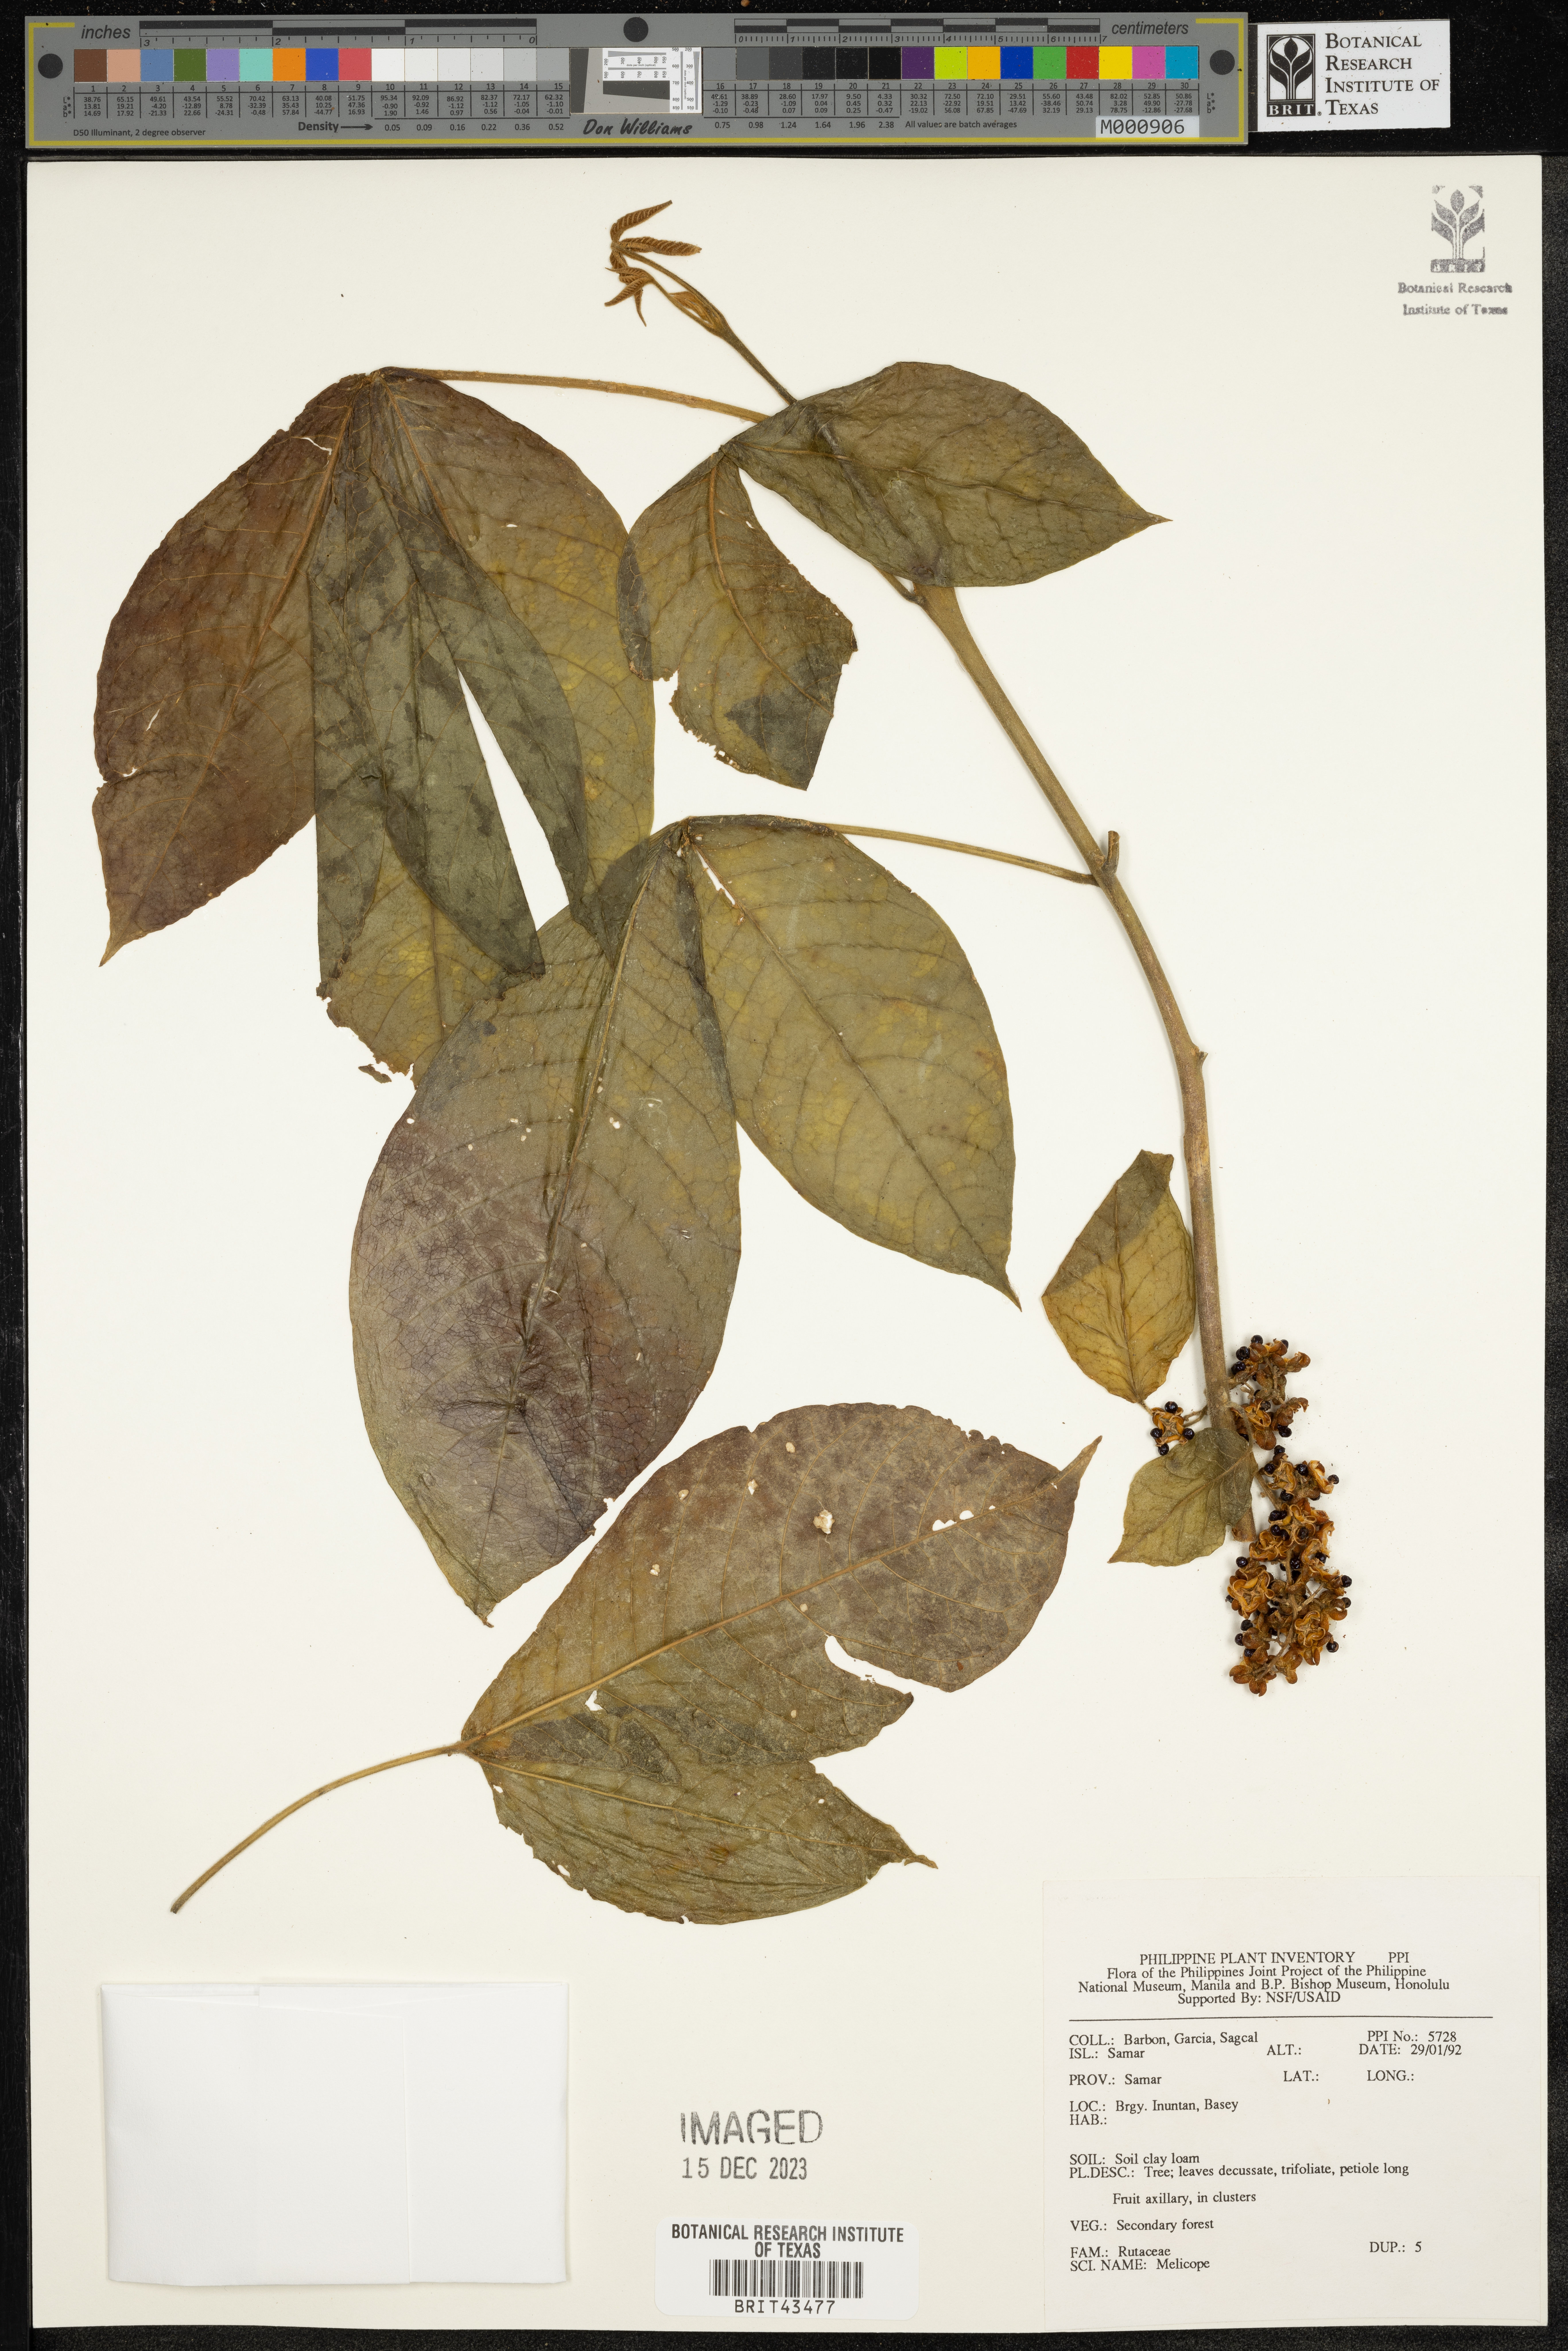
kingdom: Plantae
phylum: Tracheophyta
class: Magnoliopsida
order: Sapindales
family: Rutaceae
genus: Melicope
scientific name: Melicope
